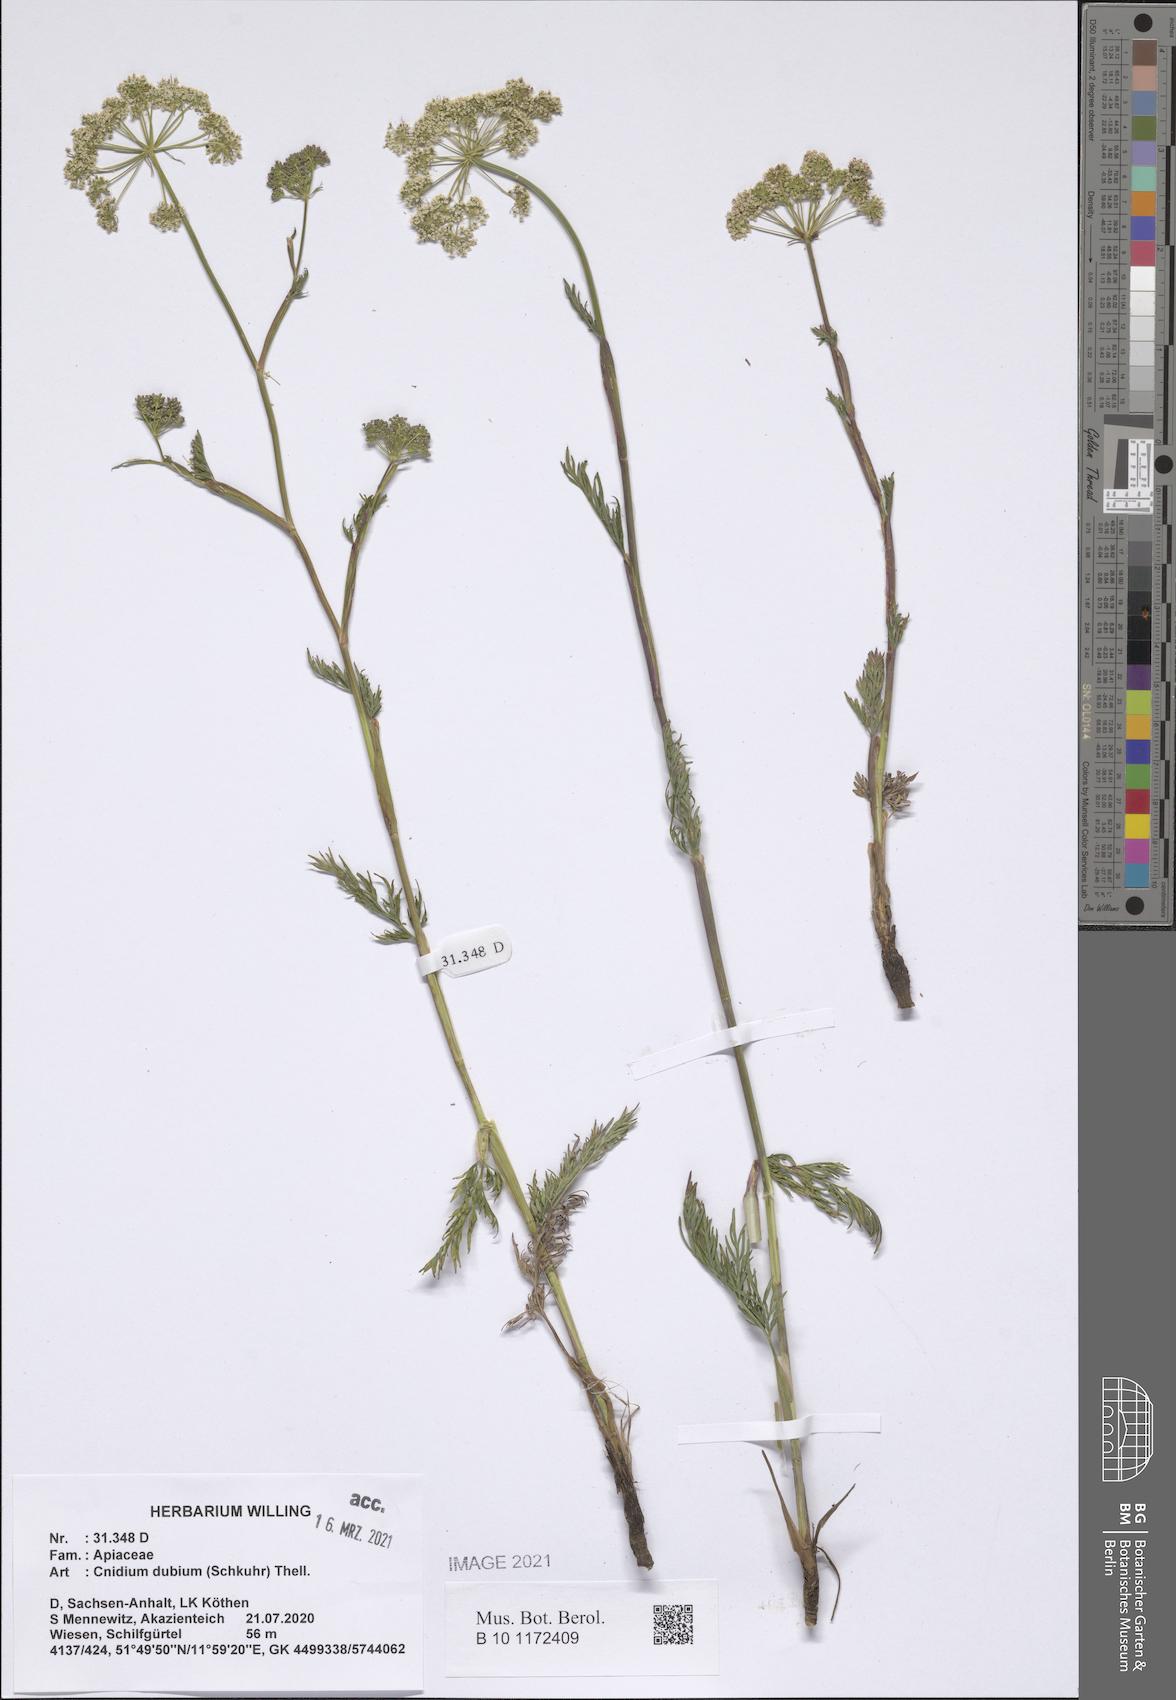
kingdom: Plantae
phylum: Tracheophyta
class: Magnoliopsida
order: Apiales
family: Apiaceae
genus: Kadenia
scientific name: Kadenia dubia
